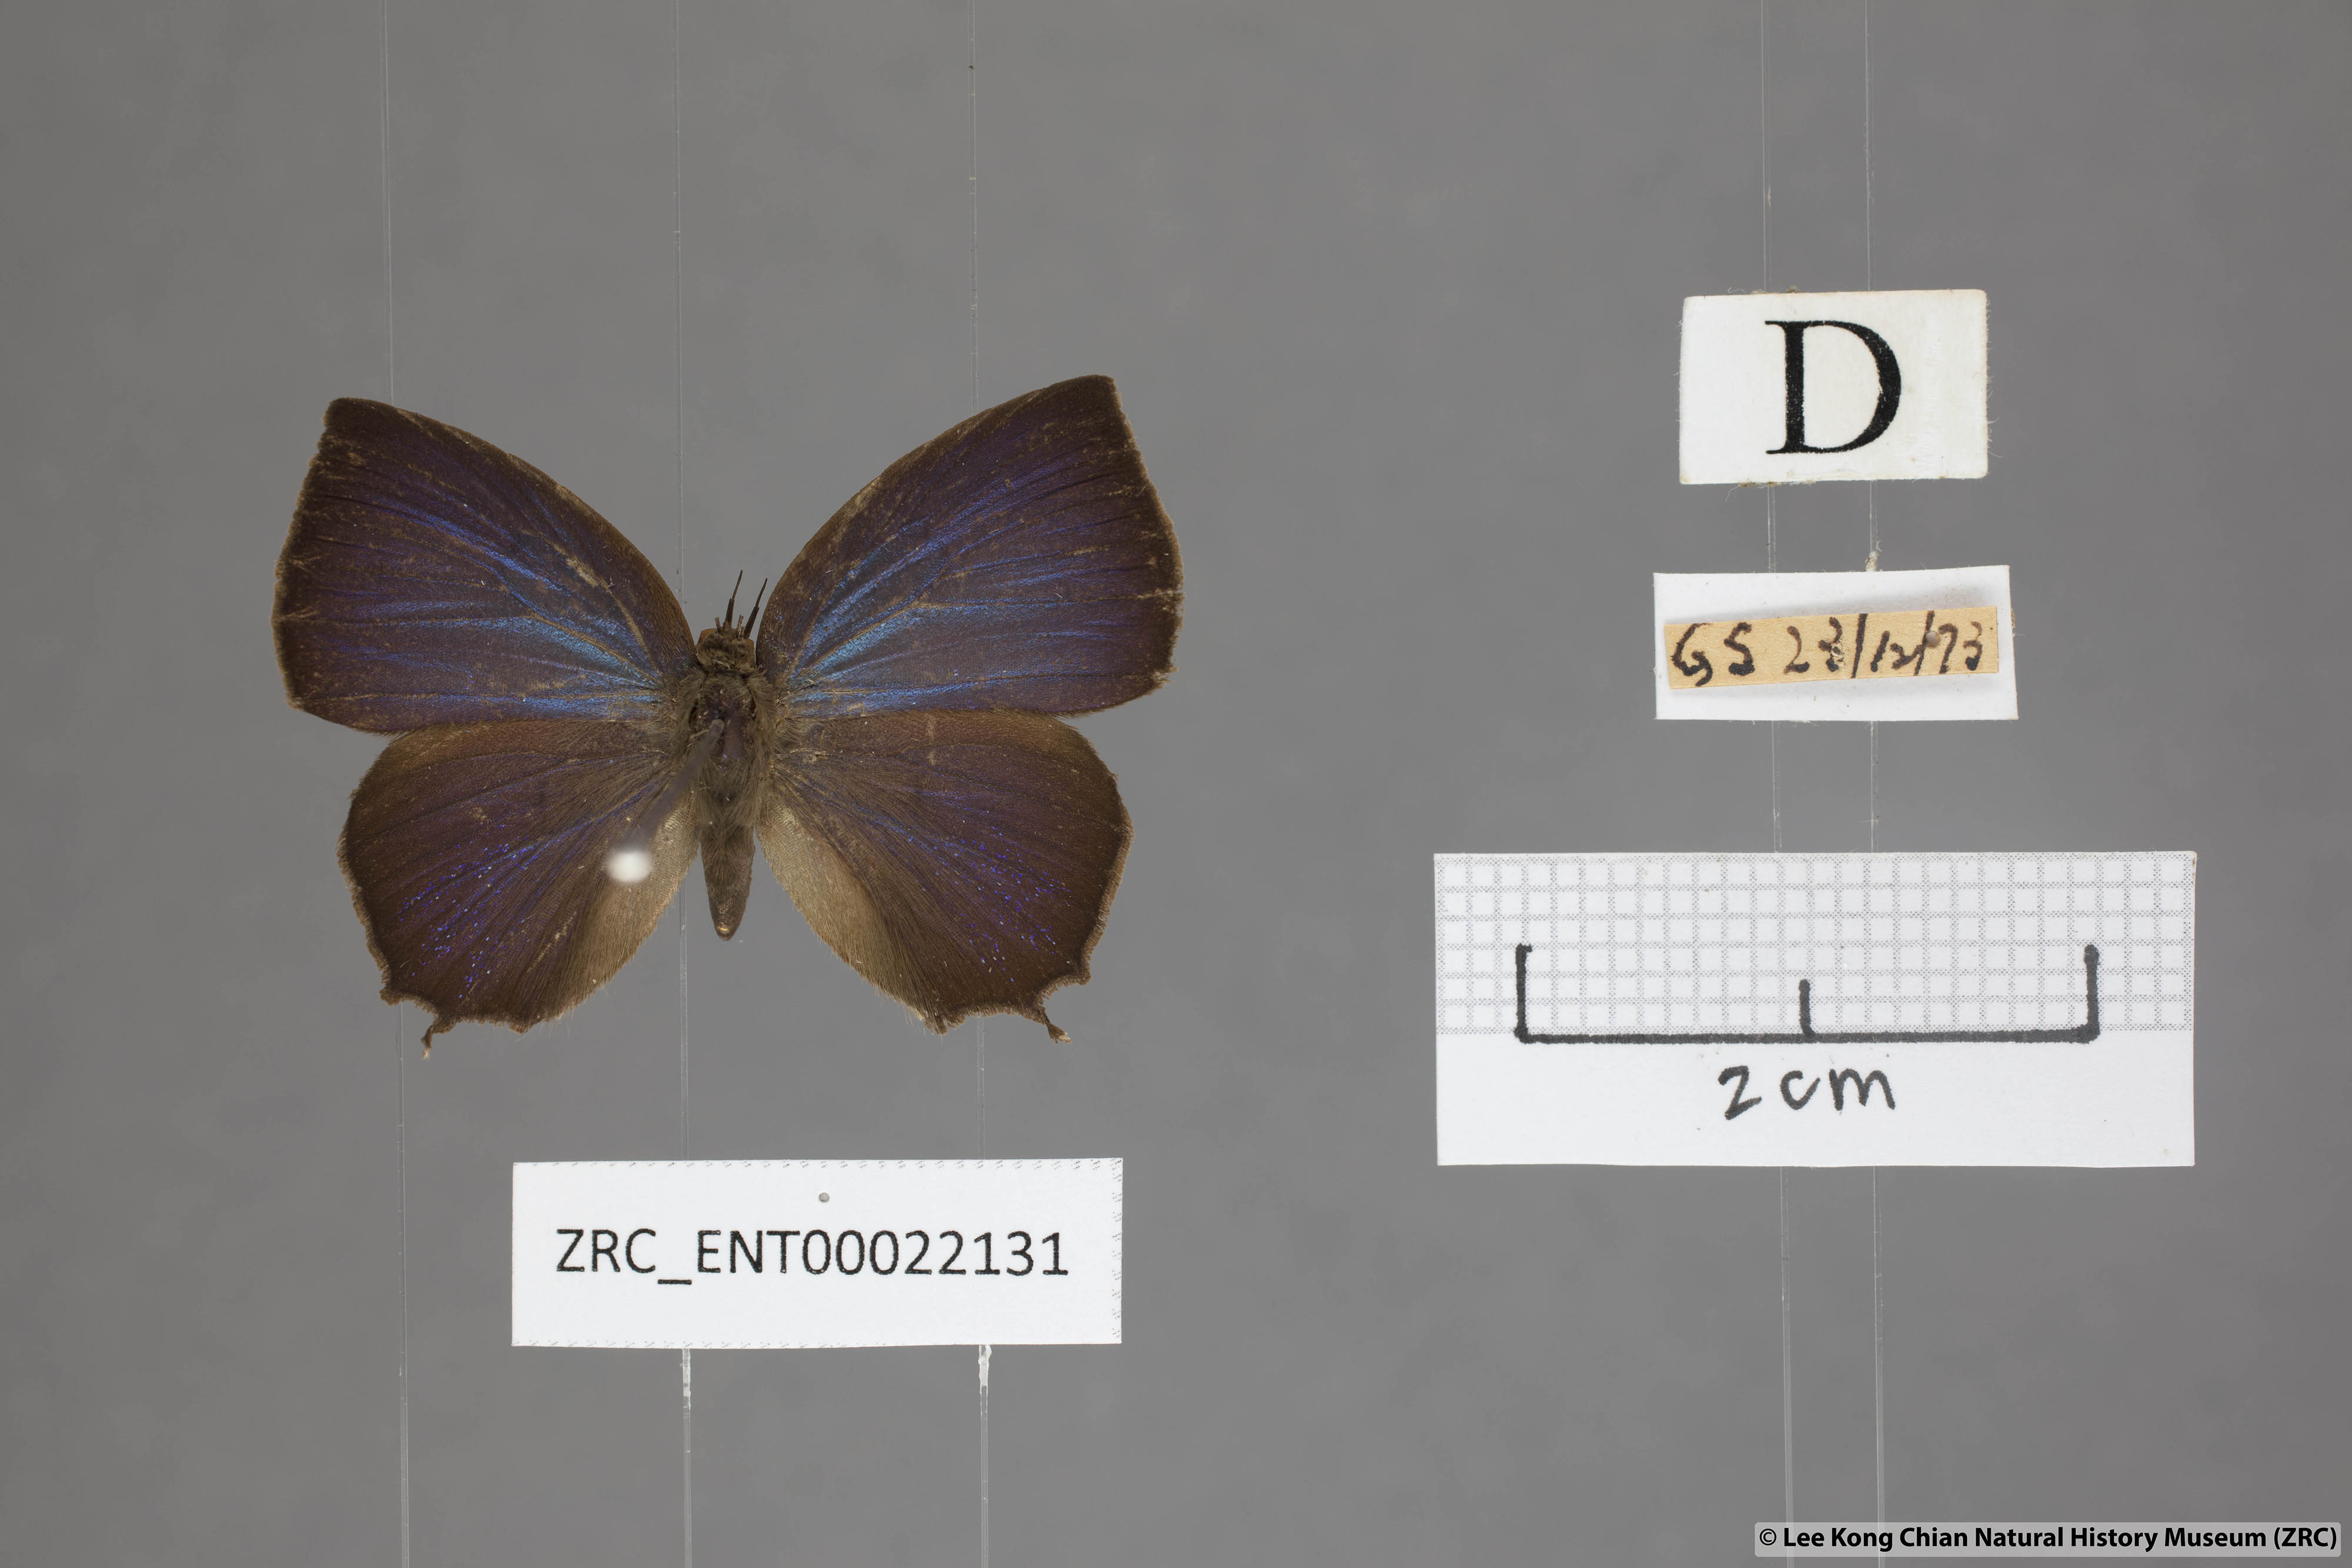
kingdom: Animalia
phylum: Arthropoda
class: Insecta
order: Lepidoptera
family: Lycaenidae
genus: Surendra
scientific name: Surendra vivarna
